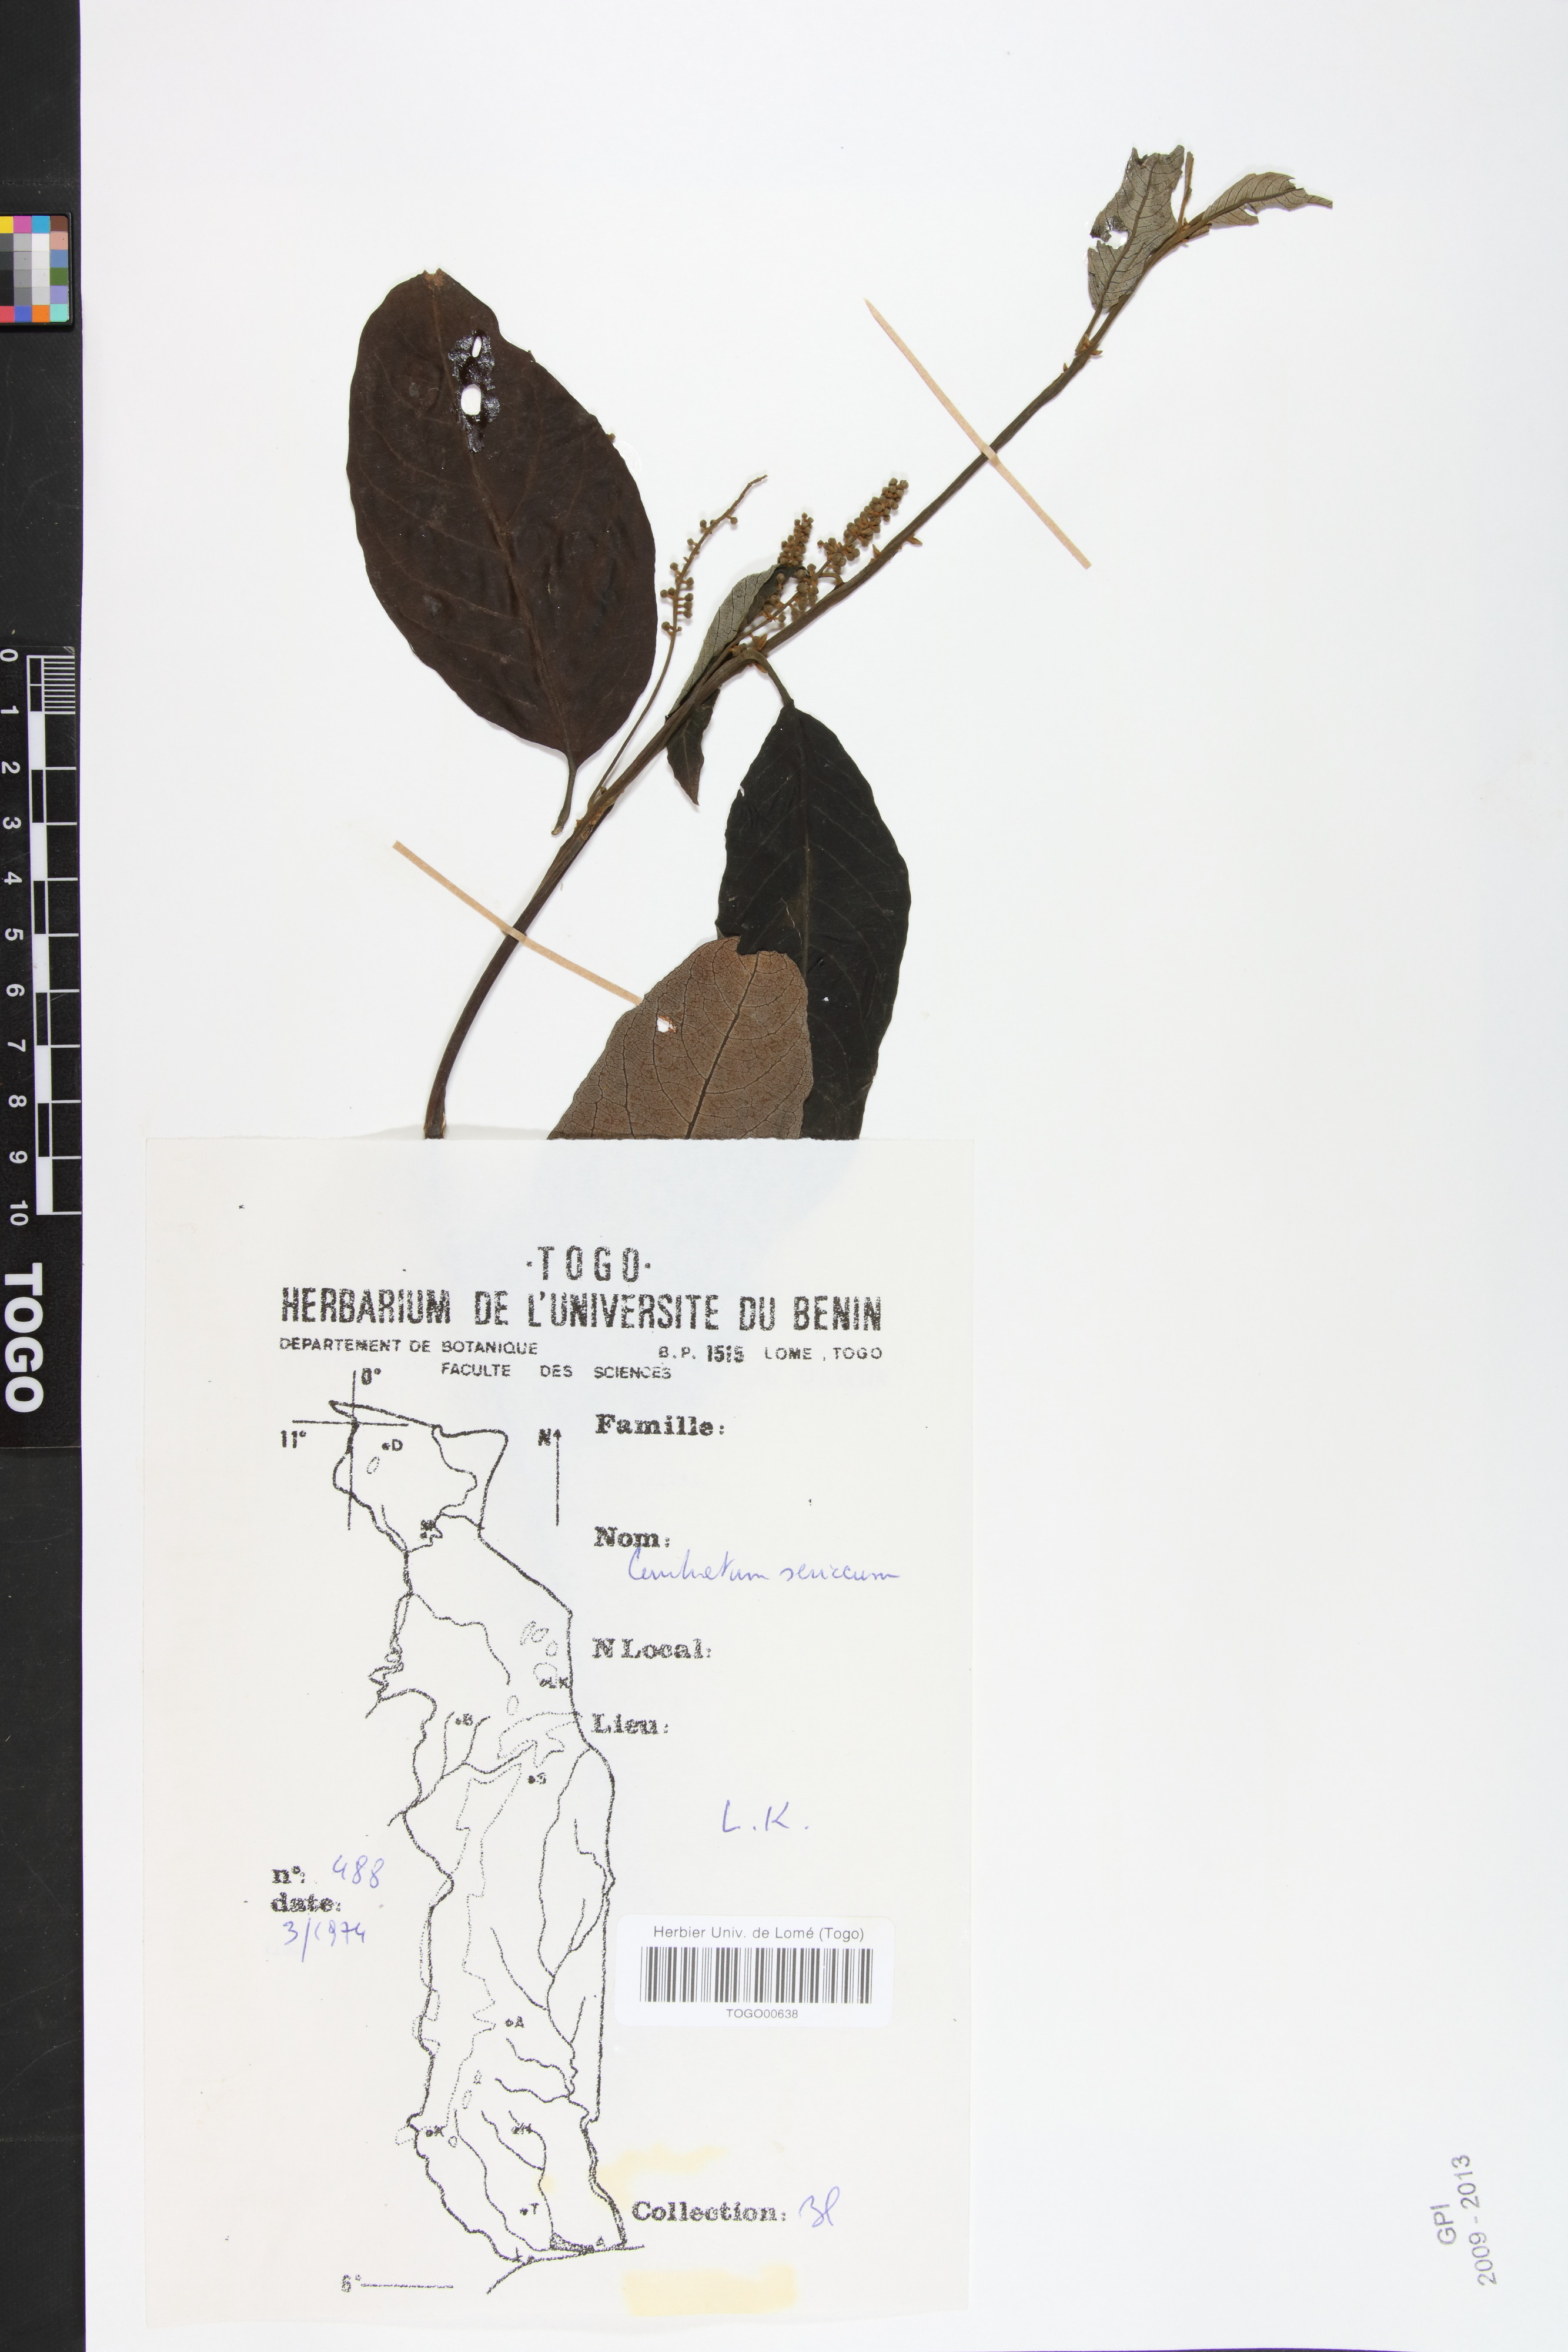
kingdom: Plantae
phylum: Tracheophyta
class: Magnoliopsida
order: Myrtales
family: Combretaceae
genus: Combretum
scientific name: Combretum sericeum
